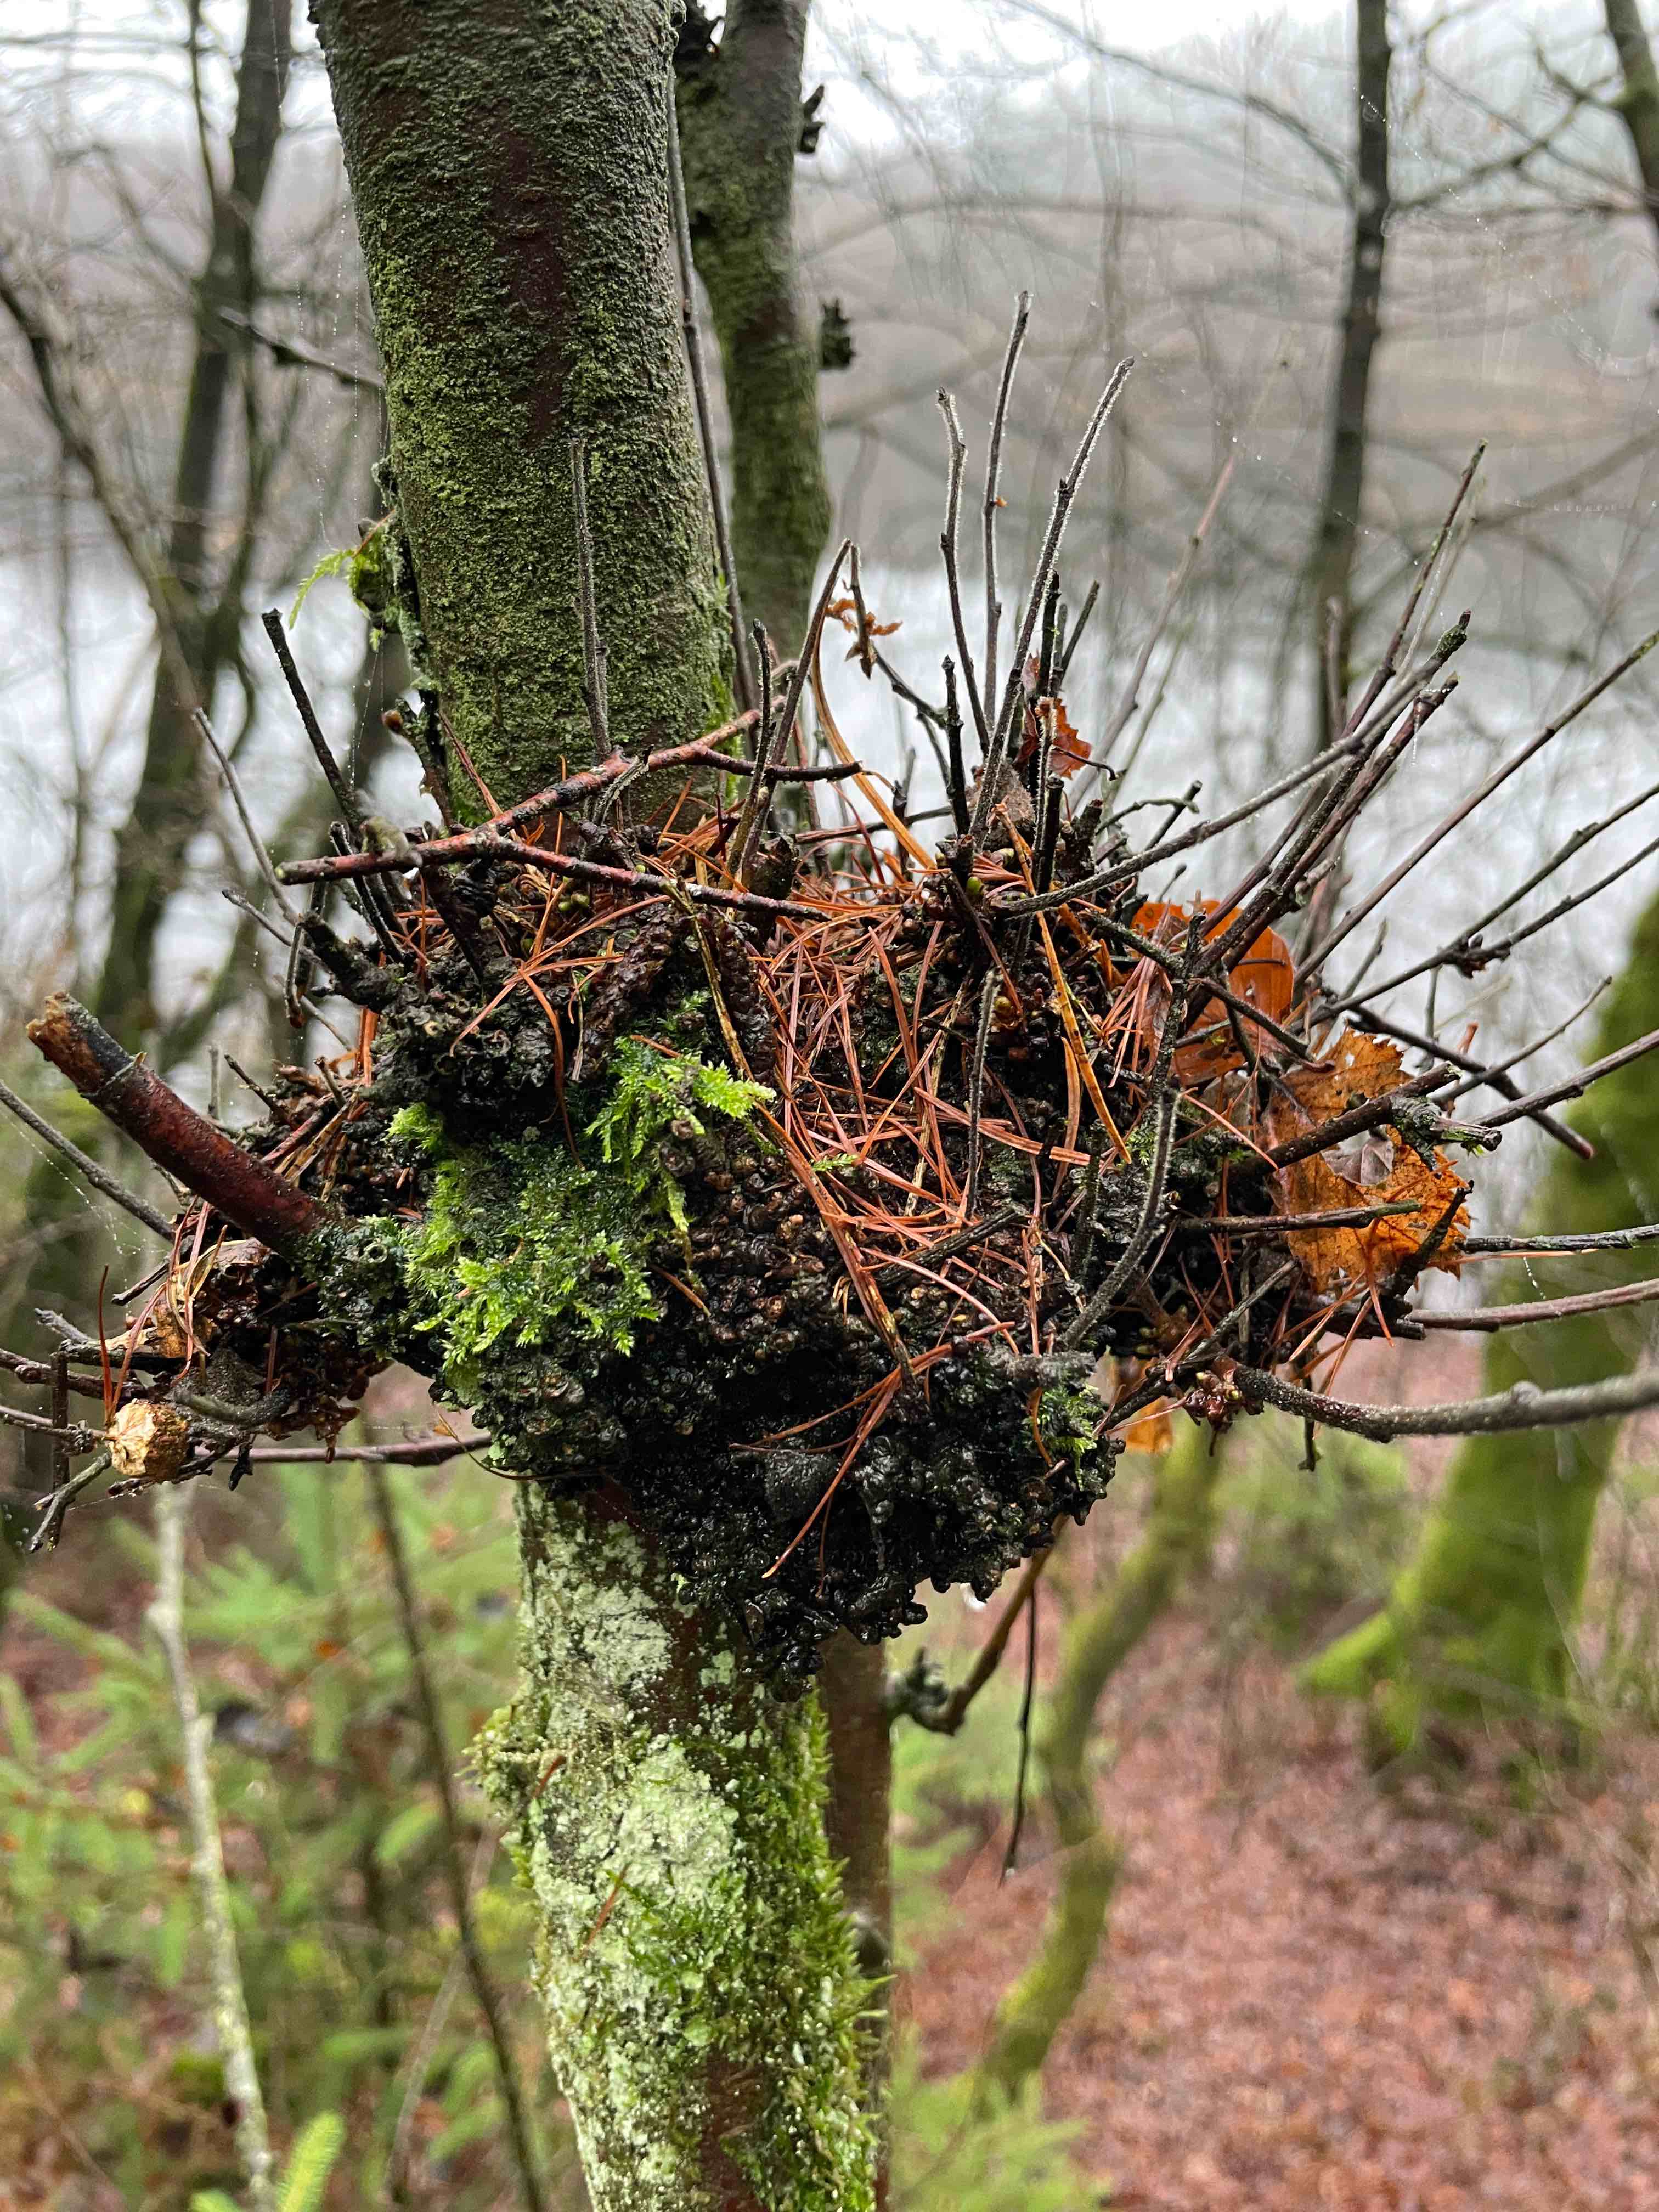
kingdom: Fungi
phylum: Ascomycota
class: Taphrinomycetes
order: Taphrinales
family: Taphrinaceae
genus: Taphrina
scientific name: Taphrina betulina
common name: hekse-sækdug
